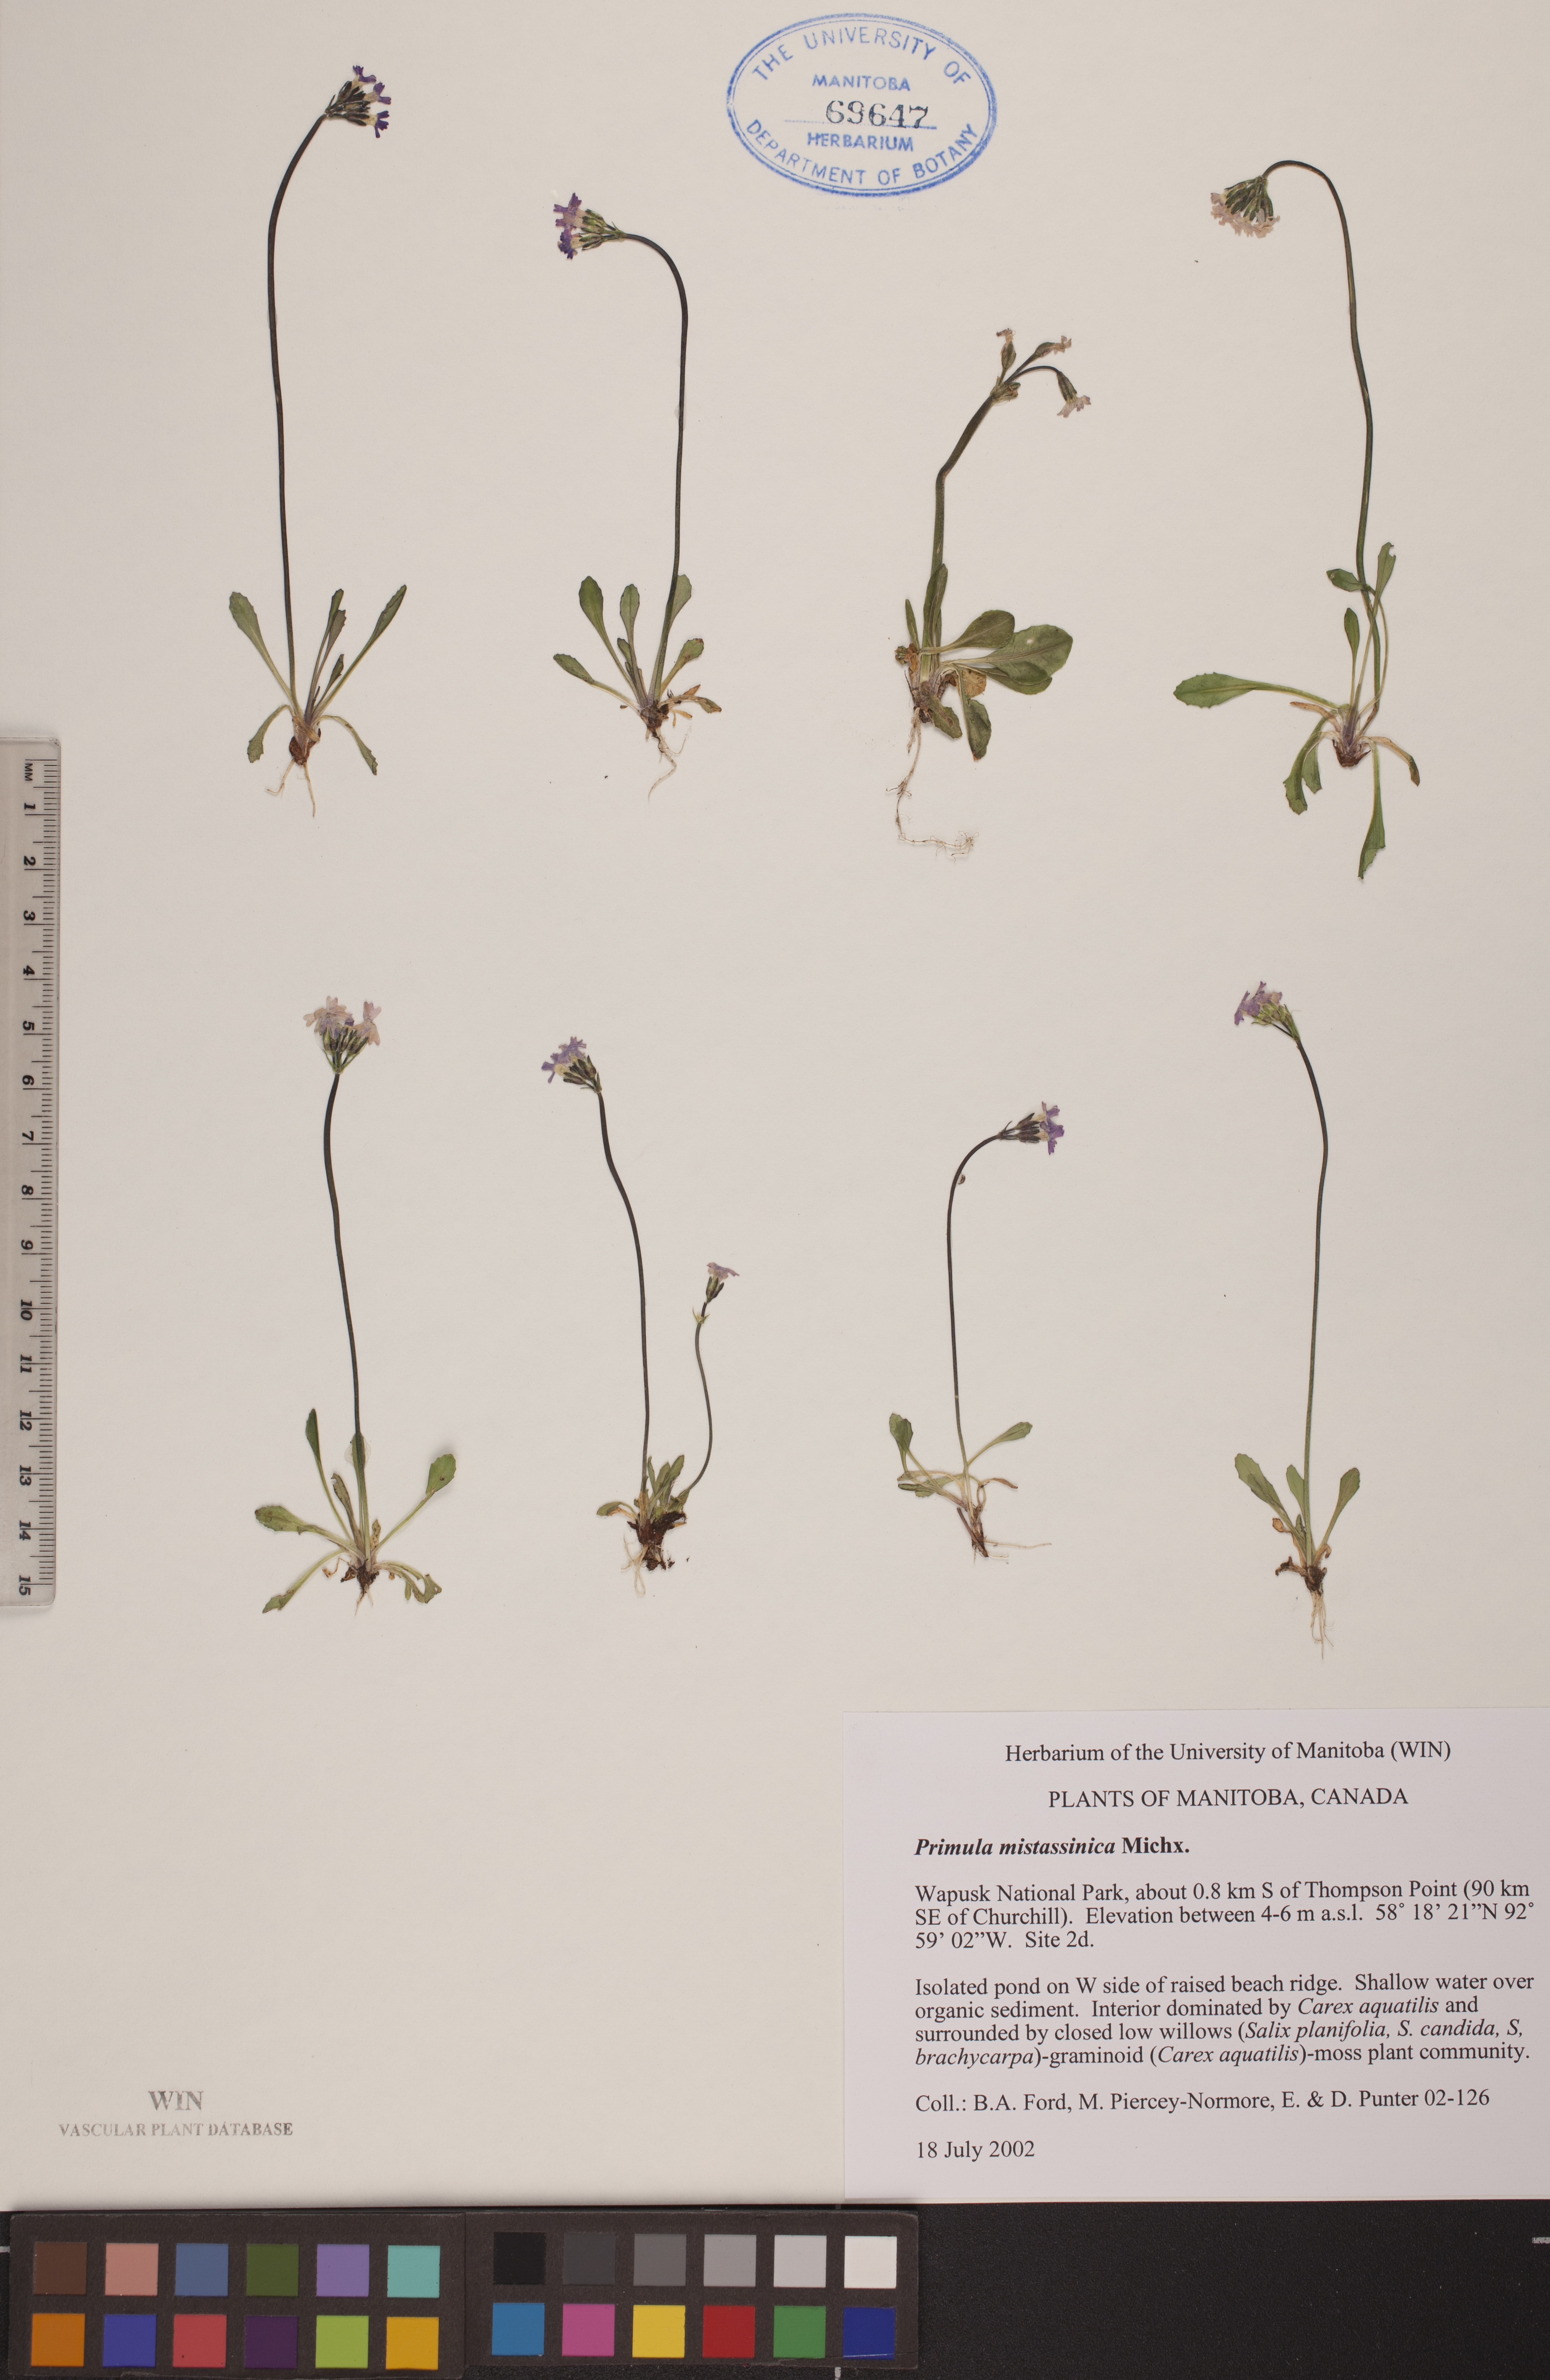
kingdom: Plantae
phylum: Tracheophyta
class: Magnoliopsida
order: Ericales
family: Primulaceae
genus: Primula
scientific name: Primula mistassinica
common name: Bird's-eye primrose
